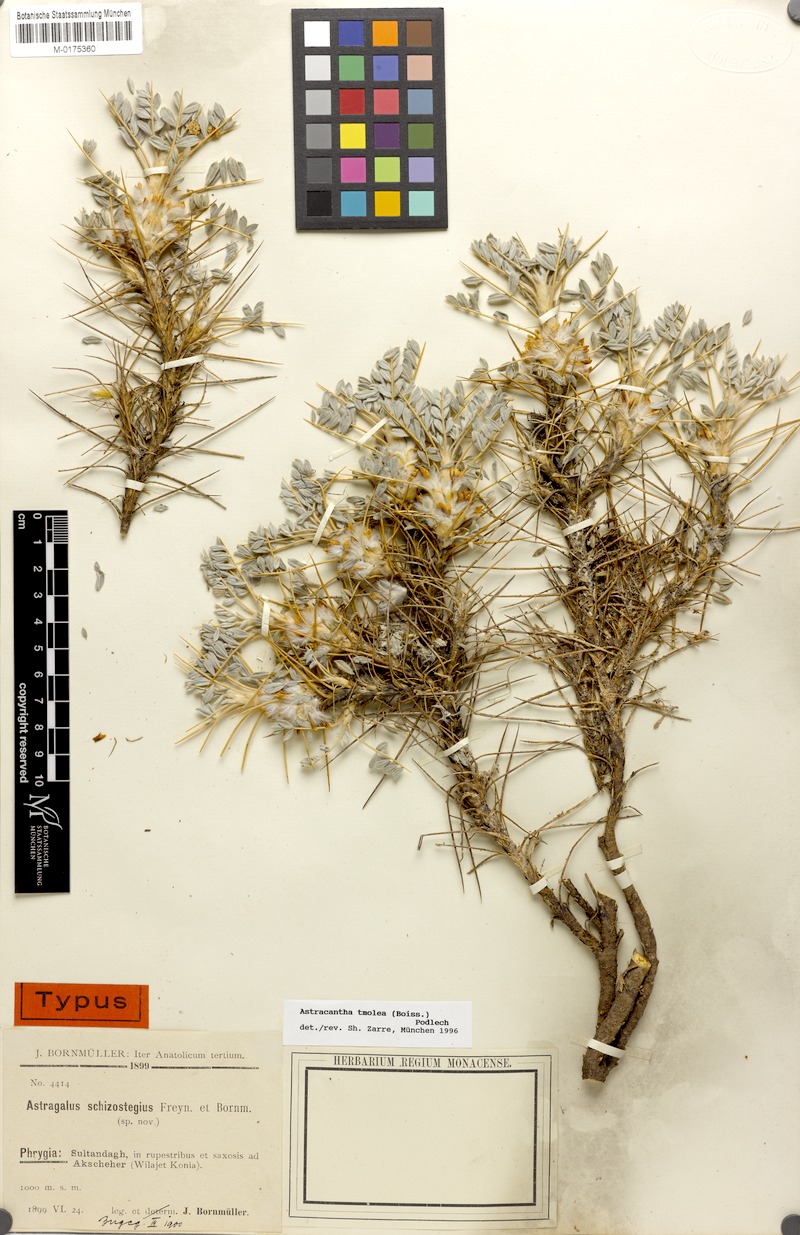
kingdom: Plantae
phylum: Tracheophyta
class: Magnoliopsida
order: Fabales
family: Fabaceae
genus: Astragalus
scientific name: Astragalus tmoleus
